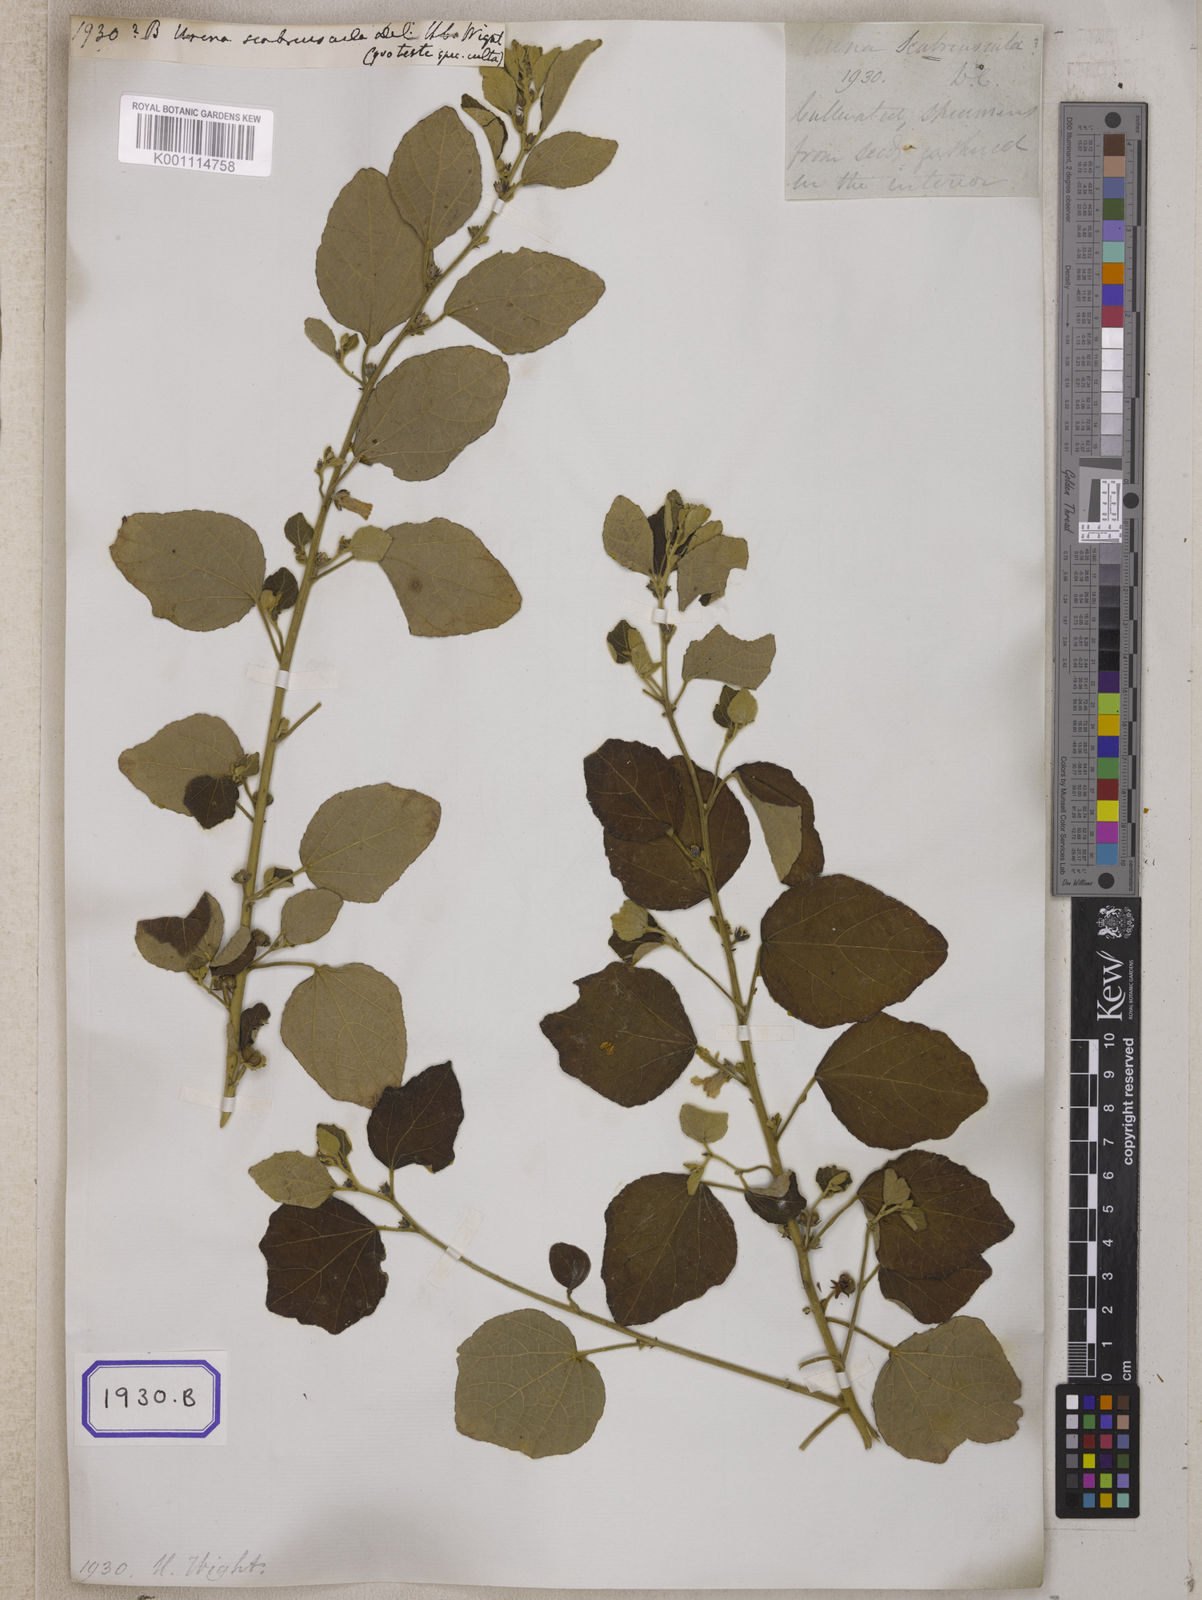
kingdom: Plantae
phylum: Tracheophyta
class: Magnoliopsida
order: Malvales
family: Malvaceae
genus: Urena
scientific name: Urena lobata
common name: Caesarweed
